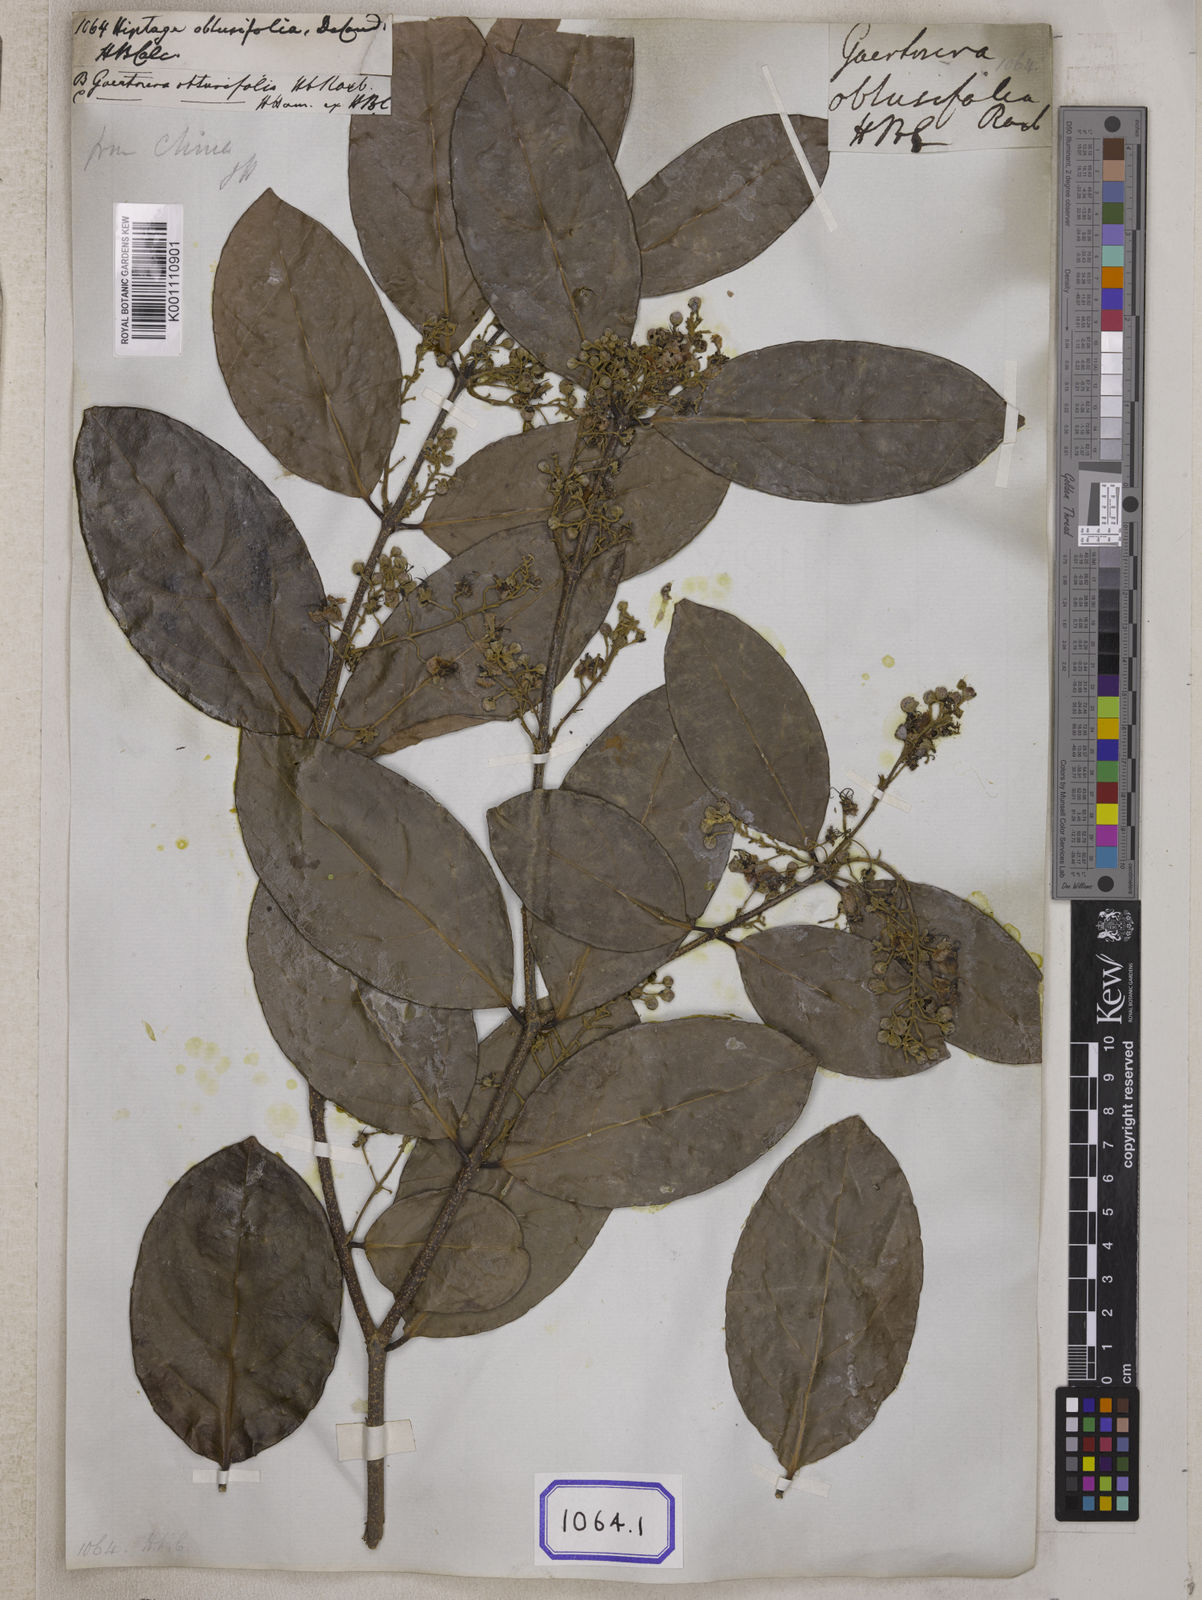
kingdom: Plantae
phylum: Tracheophyta
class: Magnoliopsida
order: Malpighiales
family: Malpighiaceae
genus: Hiptage
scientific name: Hiptage benghalensis
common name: Hiptage
